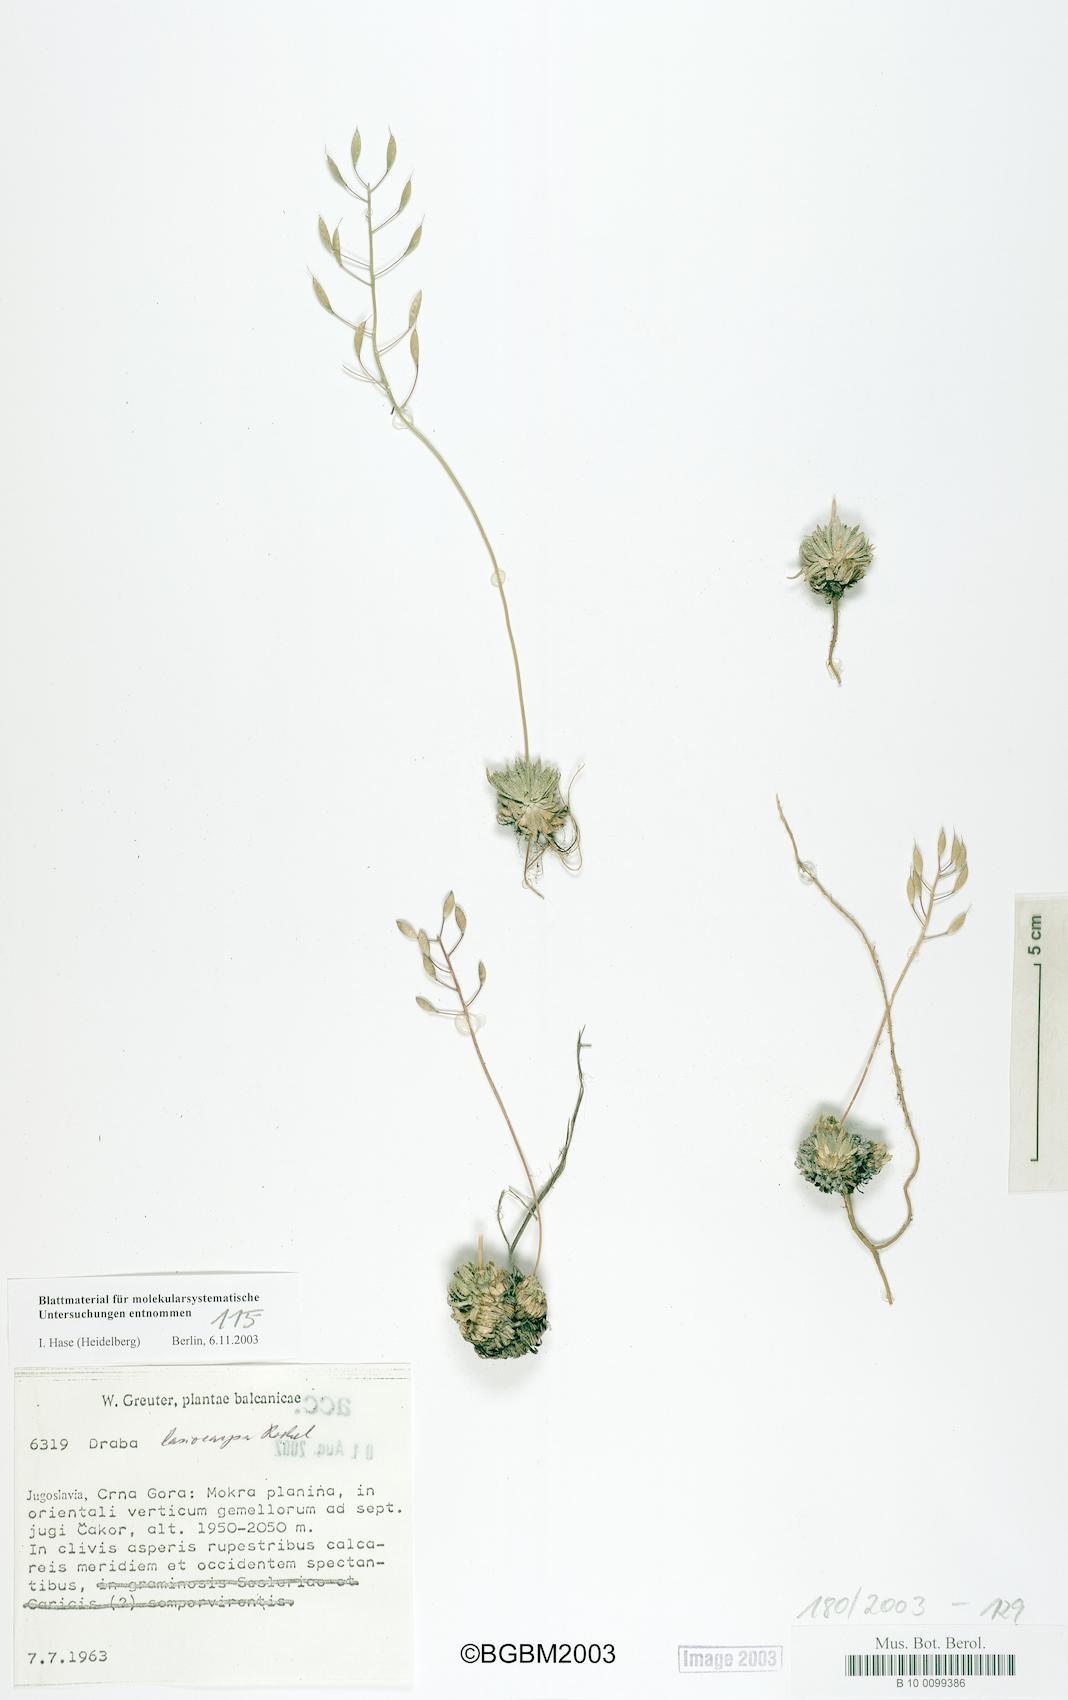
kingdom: Plantae
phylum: Tracheophyta
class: Magnoliopsida
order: Brassicales
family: Brassicaceae
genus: Draba
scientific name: Draba lasiocarpa
